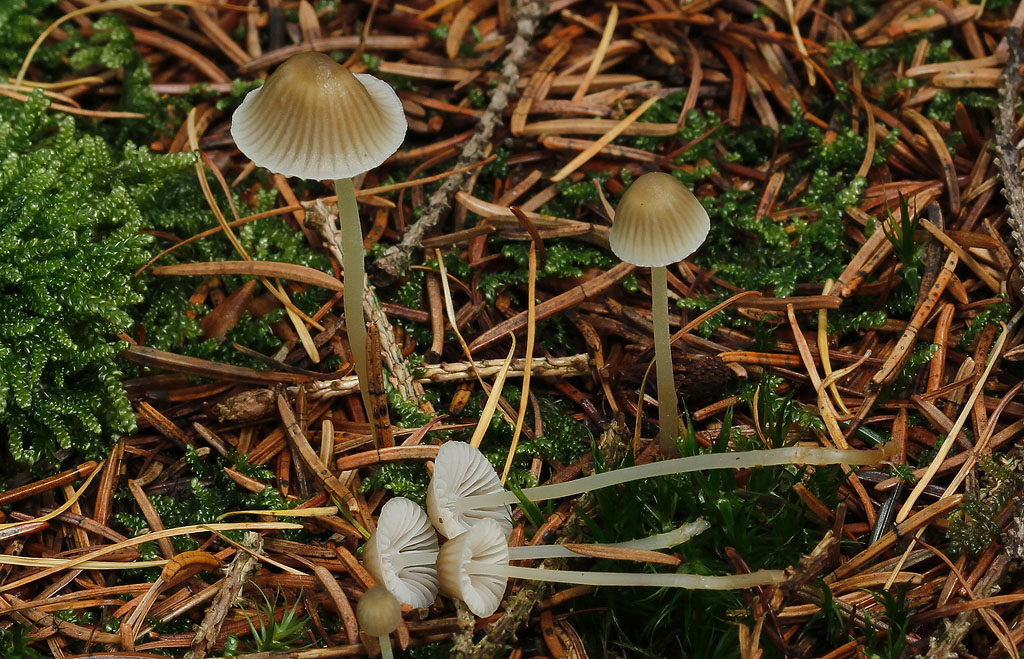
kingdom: Fungi
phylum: Basidiomycota
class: Agaricomycetes
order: Agaricales
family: Mycenaceae
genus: Mycena
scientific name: Mycena epipterygia
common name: gulstokket huesvamp
